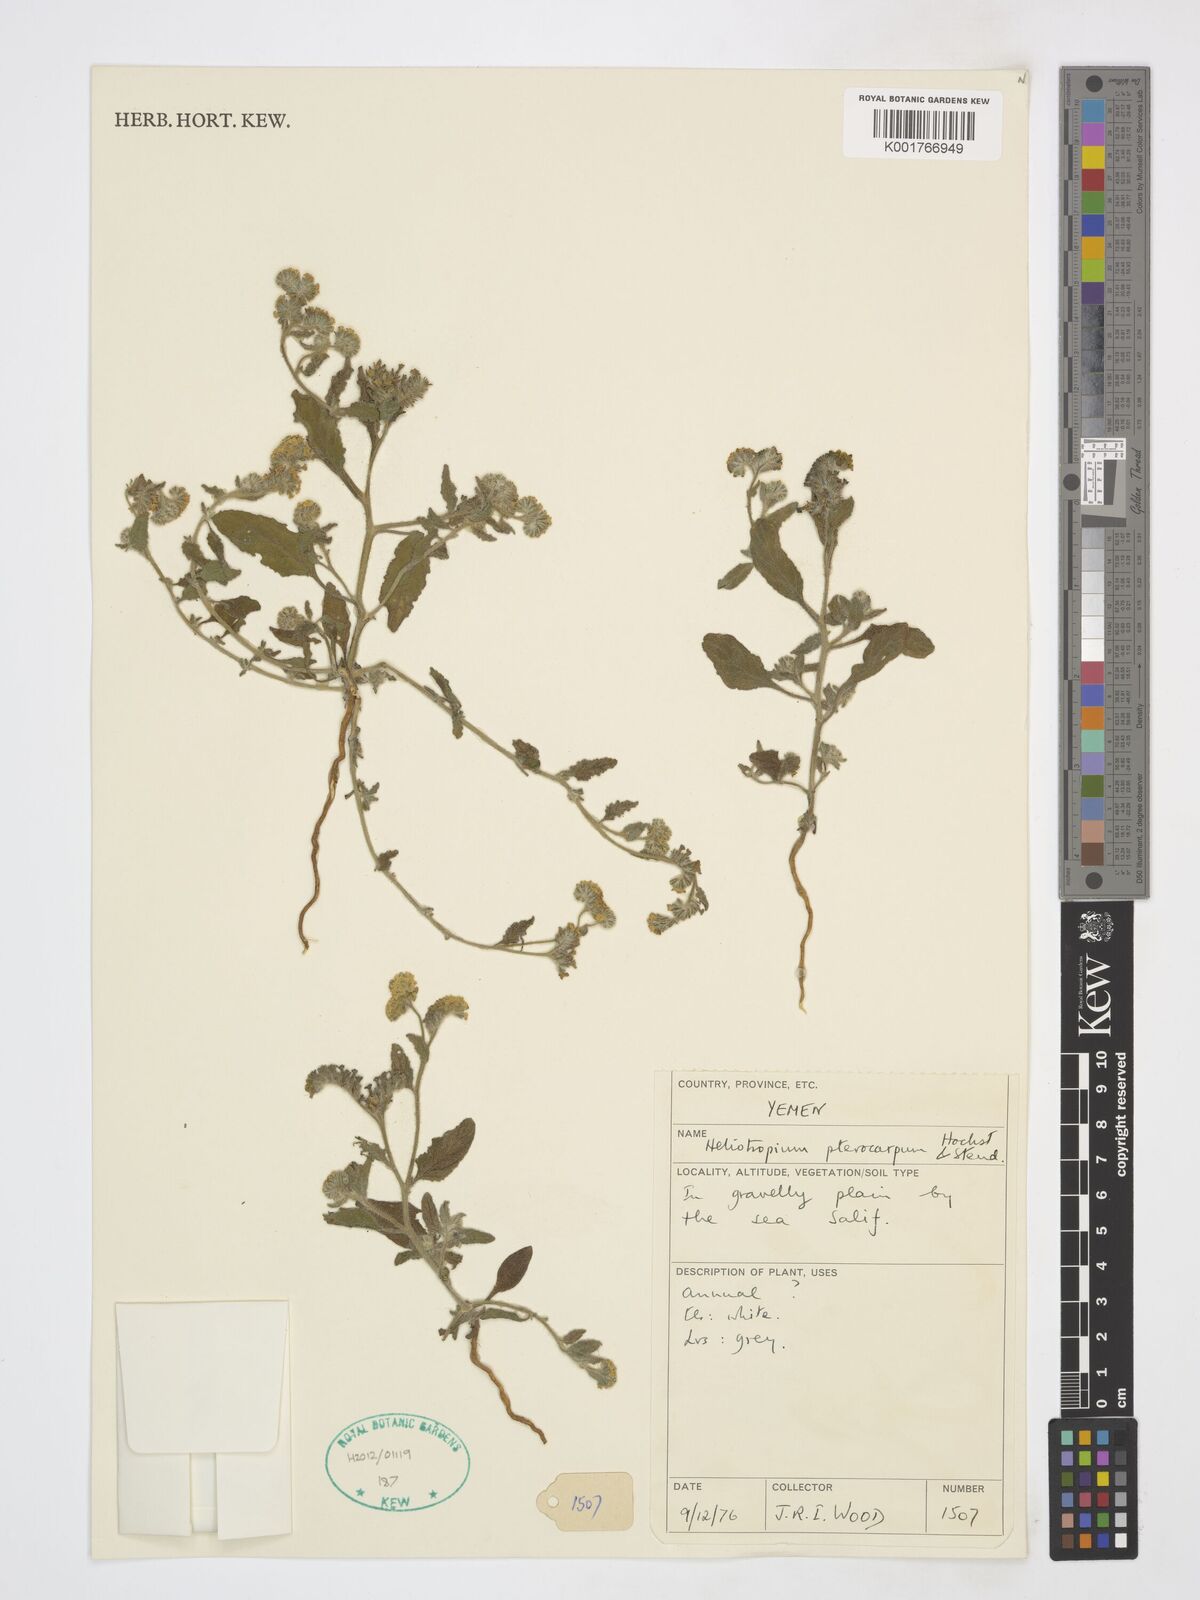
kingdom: Plantae
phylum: Tracheophyta
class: Magnoliopsida
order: Boraginales
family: Heliotropiaceae
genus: Heliotropium
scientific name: Heliotropium pterocarpum
